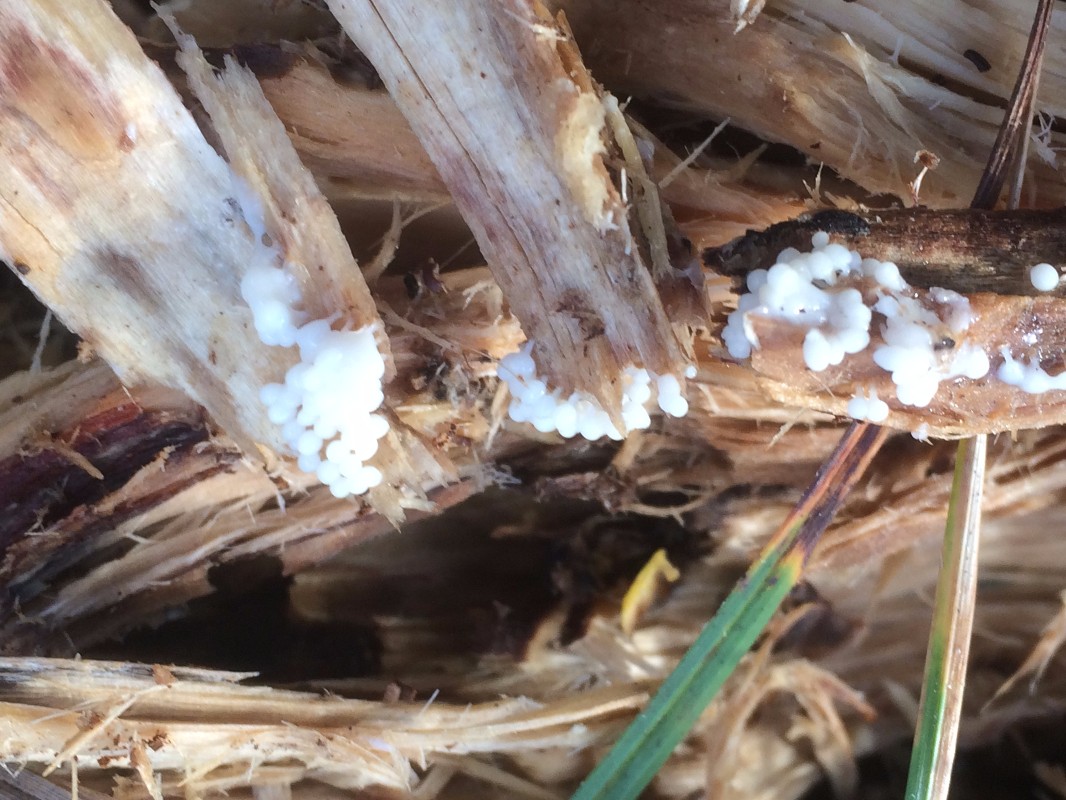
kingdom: Protozoa
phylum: Mycetozoa
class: Myxomycetes
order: Trichiales
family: Arcyriaceae
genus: Arcyria
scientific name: Arcyria denudata
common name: karminrød skålsvøb
